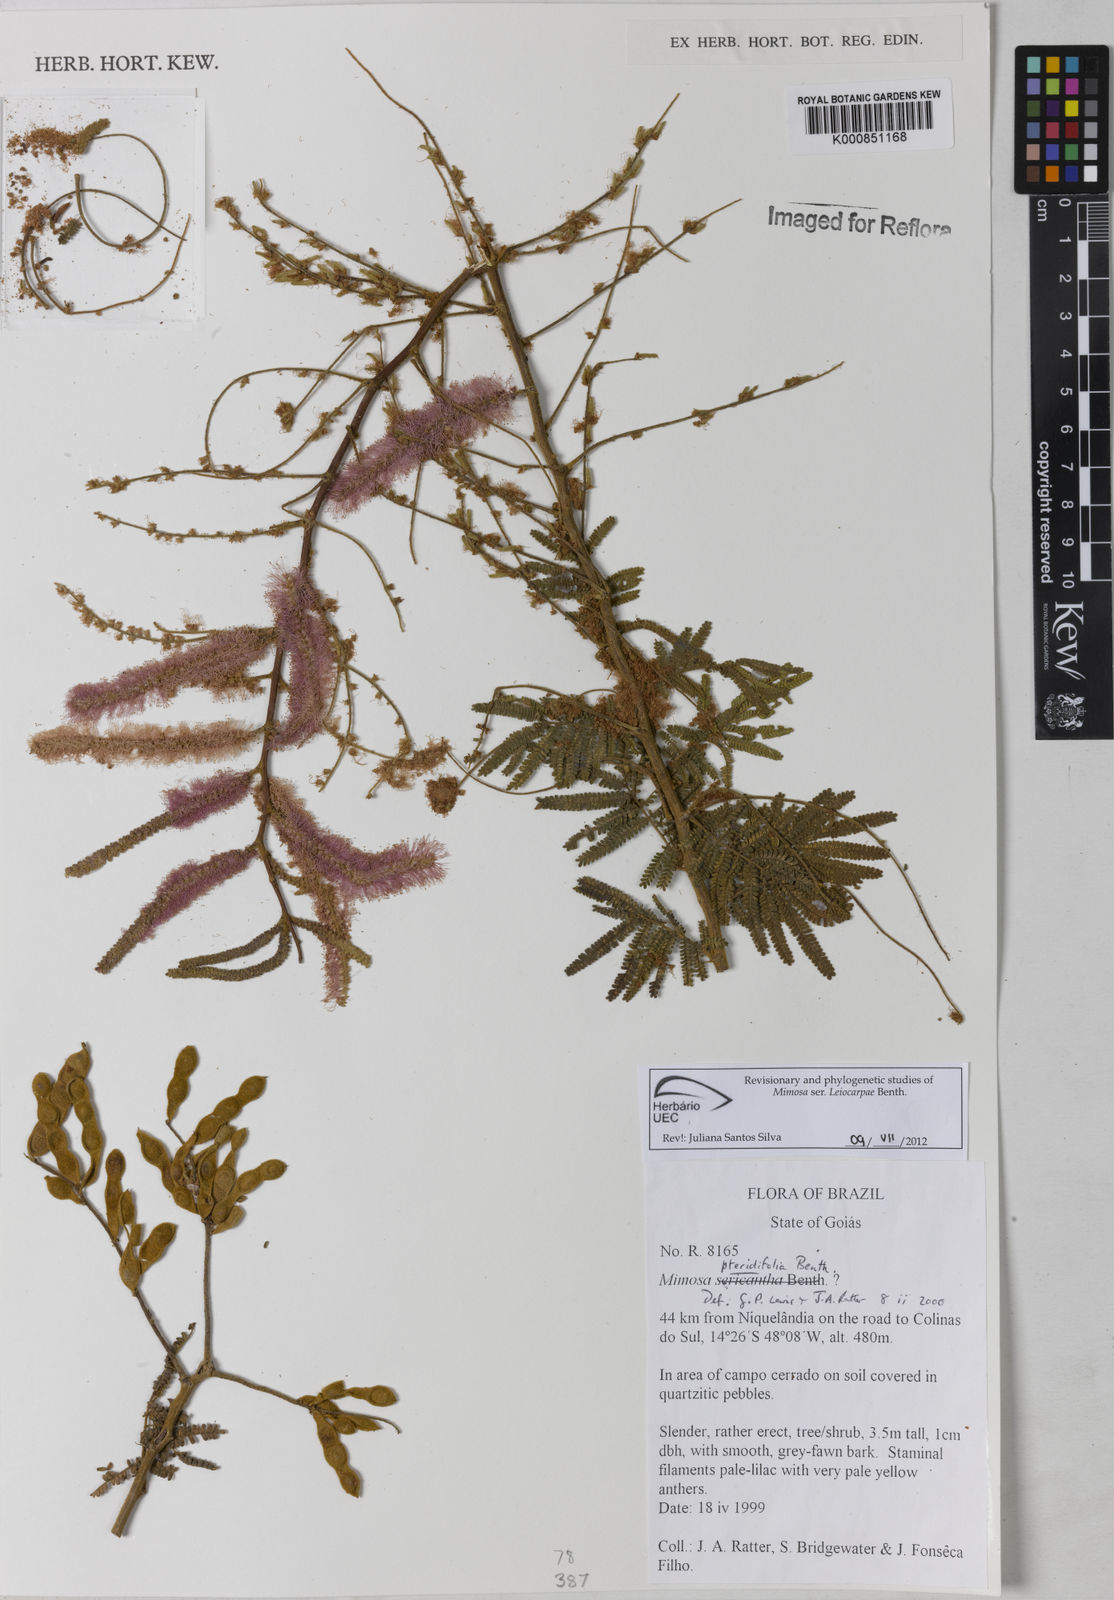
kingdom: Plantae
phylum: Tracheophyta
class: Magnoliopsida
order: Fabales
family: Fabaceae
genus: Mimosa
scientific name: Mimosa pteridifolia
